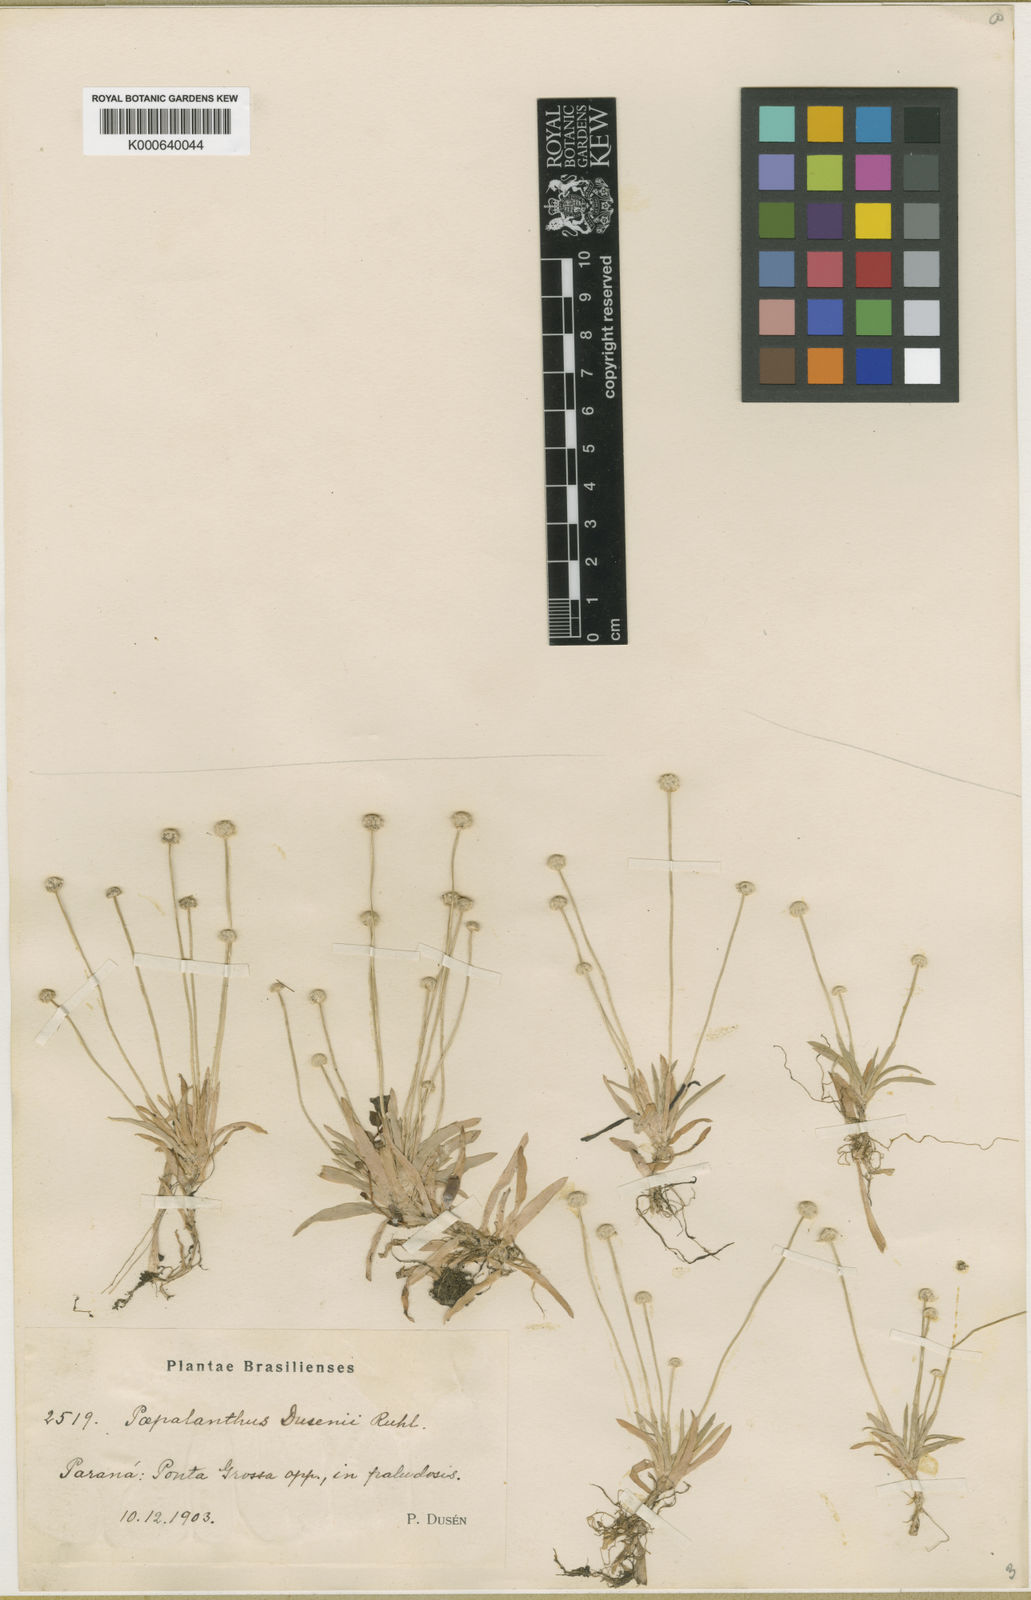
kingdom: Plantae
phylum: Tracheophyta
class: Liliopsida
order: Poales
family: Eriocaulaceae
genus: Paepalanthus
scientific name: Paepalanthus
